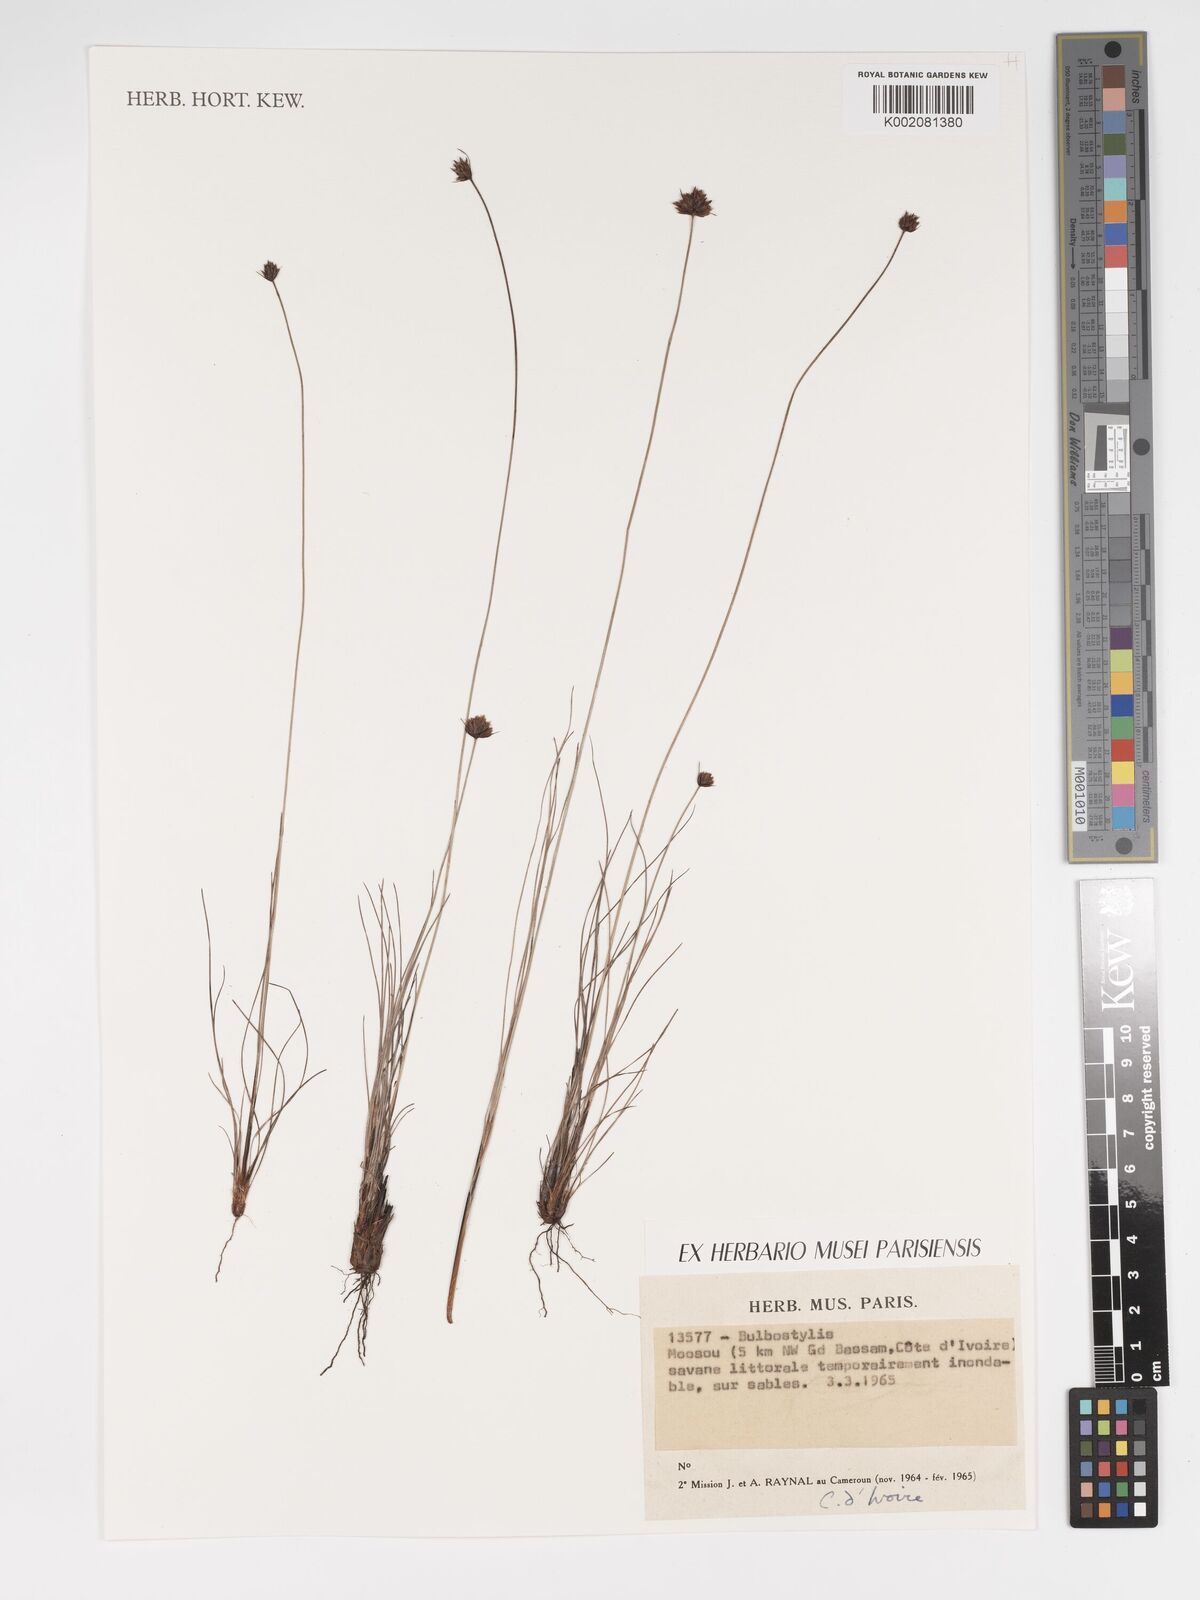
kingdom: Plantae
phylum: Tracheophyta
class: Liliopsida
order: Poales
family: Cyperaceae
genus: Bulbostylis
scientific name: Bulbostylis
